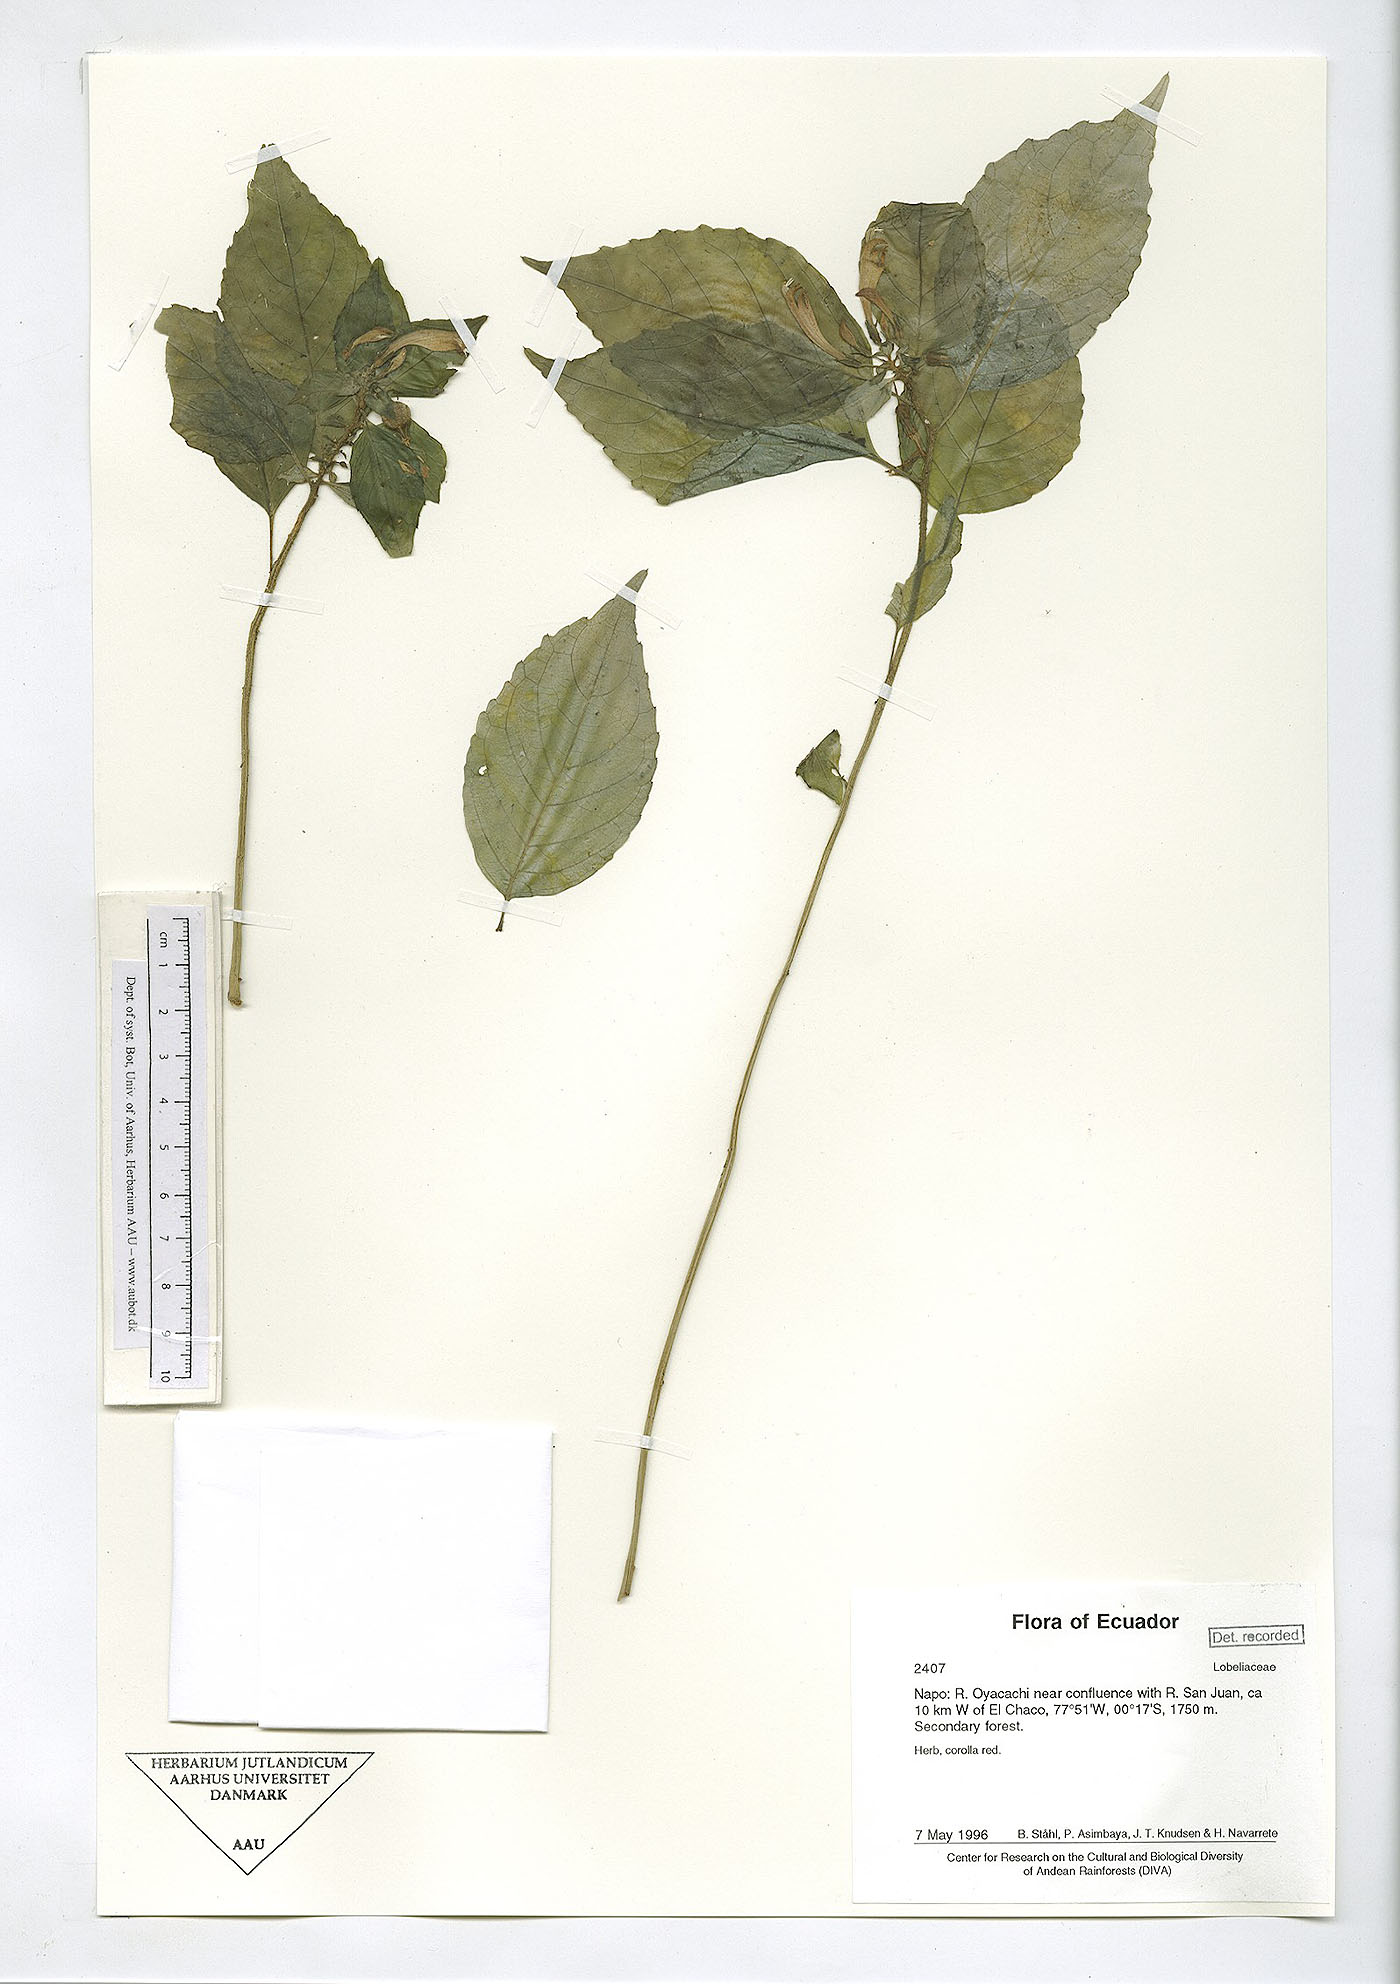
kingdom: Plantae
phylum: Tracheophyta
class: Magnoliopsida
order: Asterales
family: Campanulaceae
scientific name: Campanulaceae
